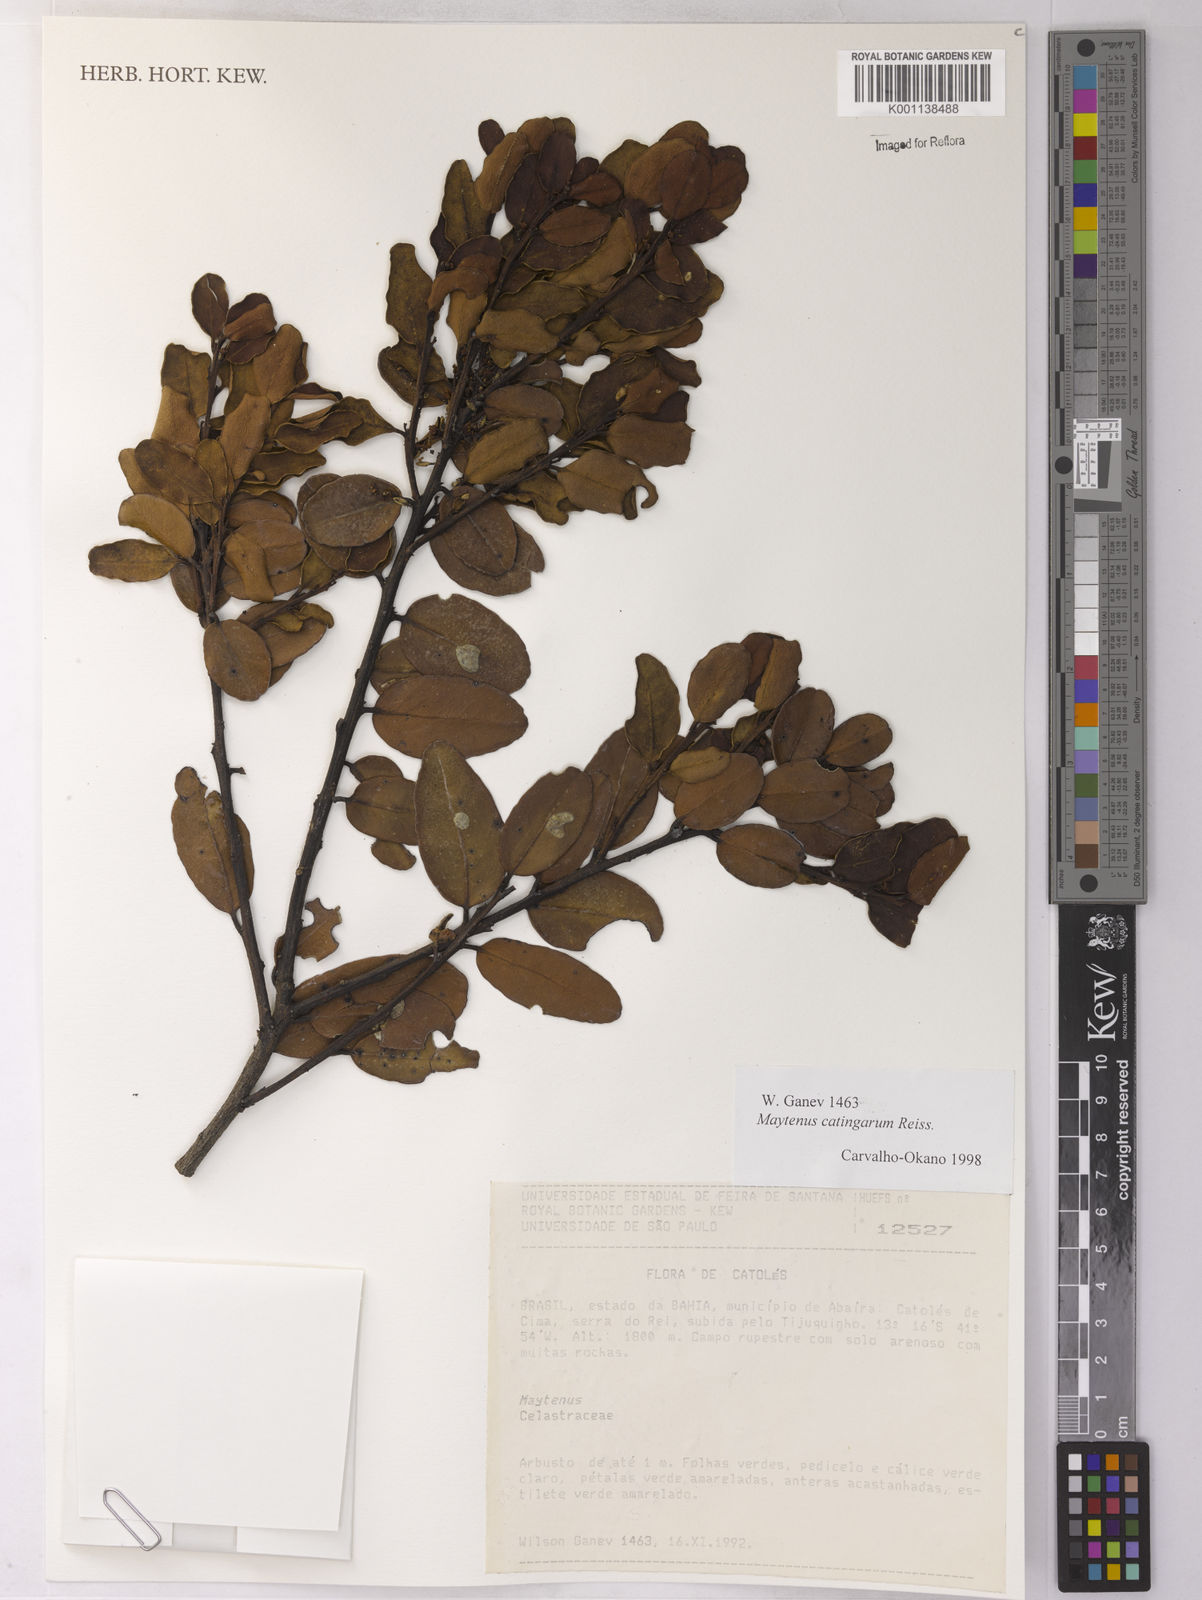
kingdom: Plantae
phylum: Tracheophyta
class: Magnoliopsida
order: Celastrales
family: Celastraceae
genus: Monteverdia
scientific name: Monteverdia catingarum
